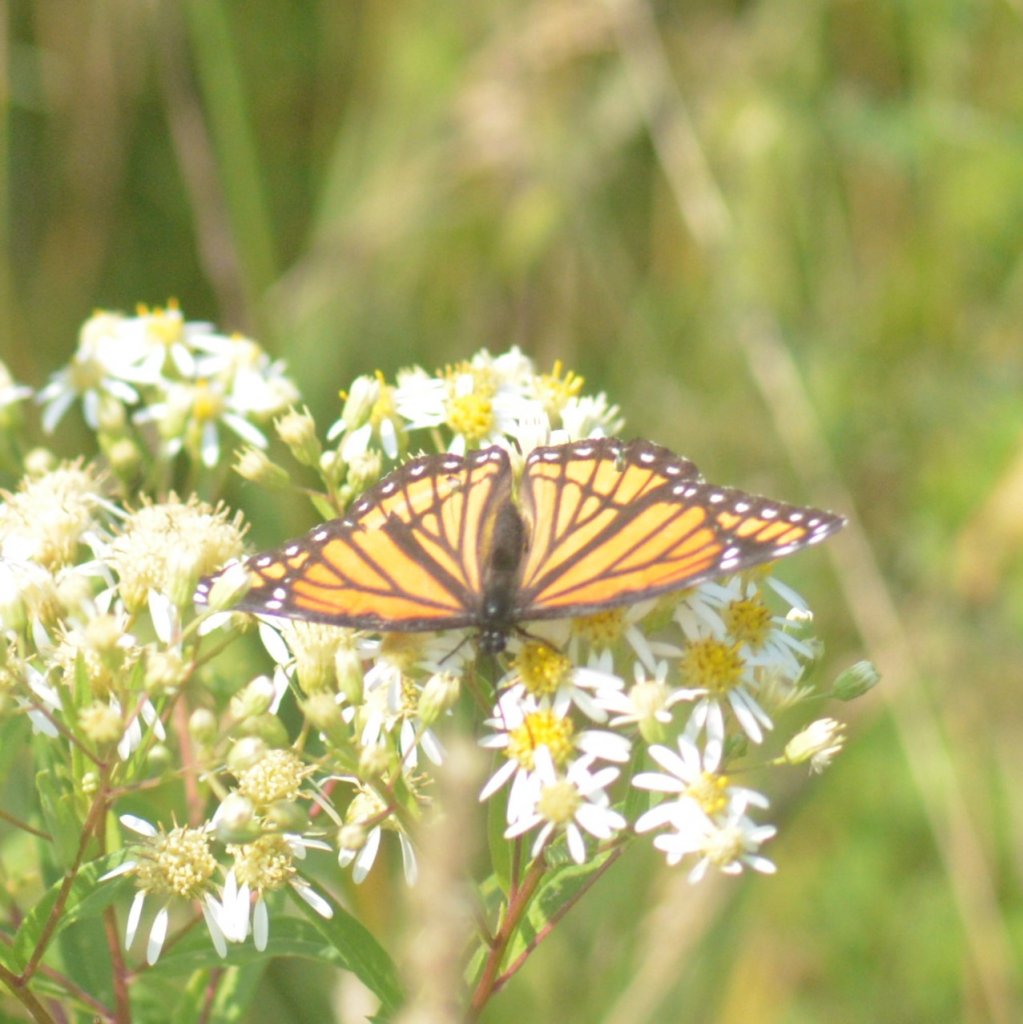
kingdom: Animalia
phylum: Arthropoda
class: Insecta
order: Lepidoptera
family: Nymphalidae
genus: Limenitis
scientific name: Limenitis archippus
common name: Viceroy
